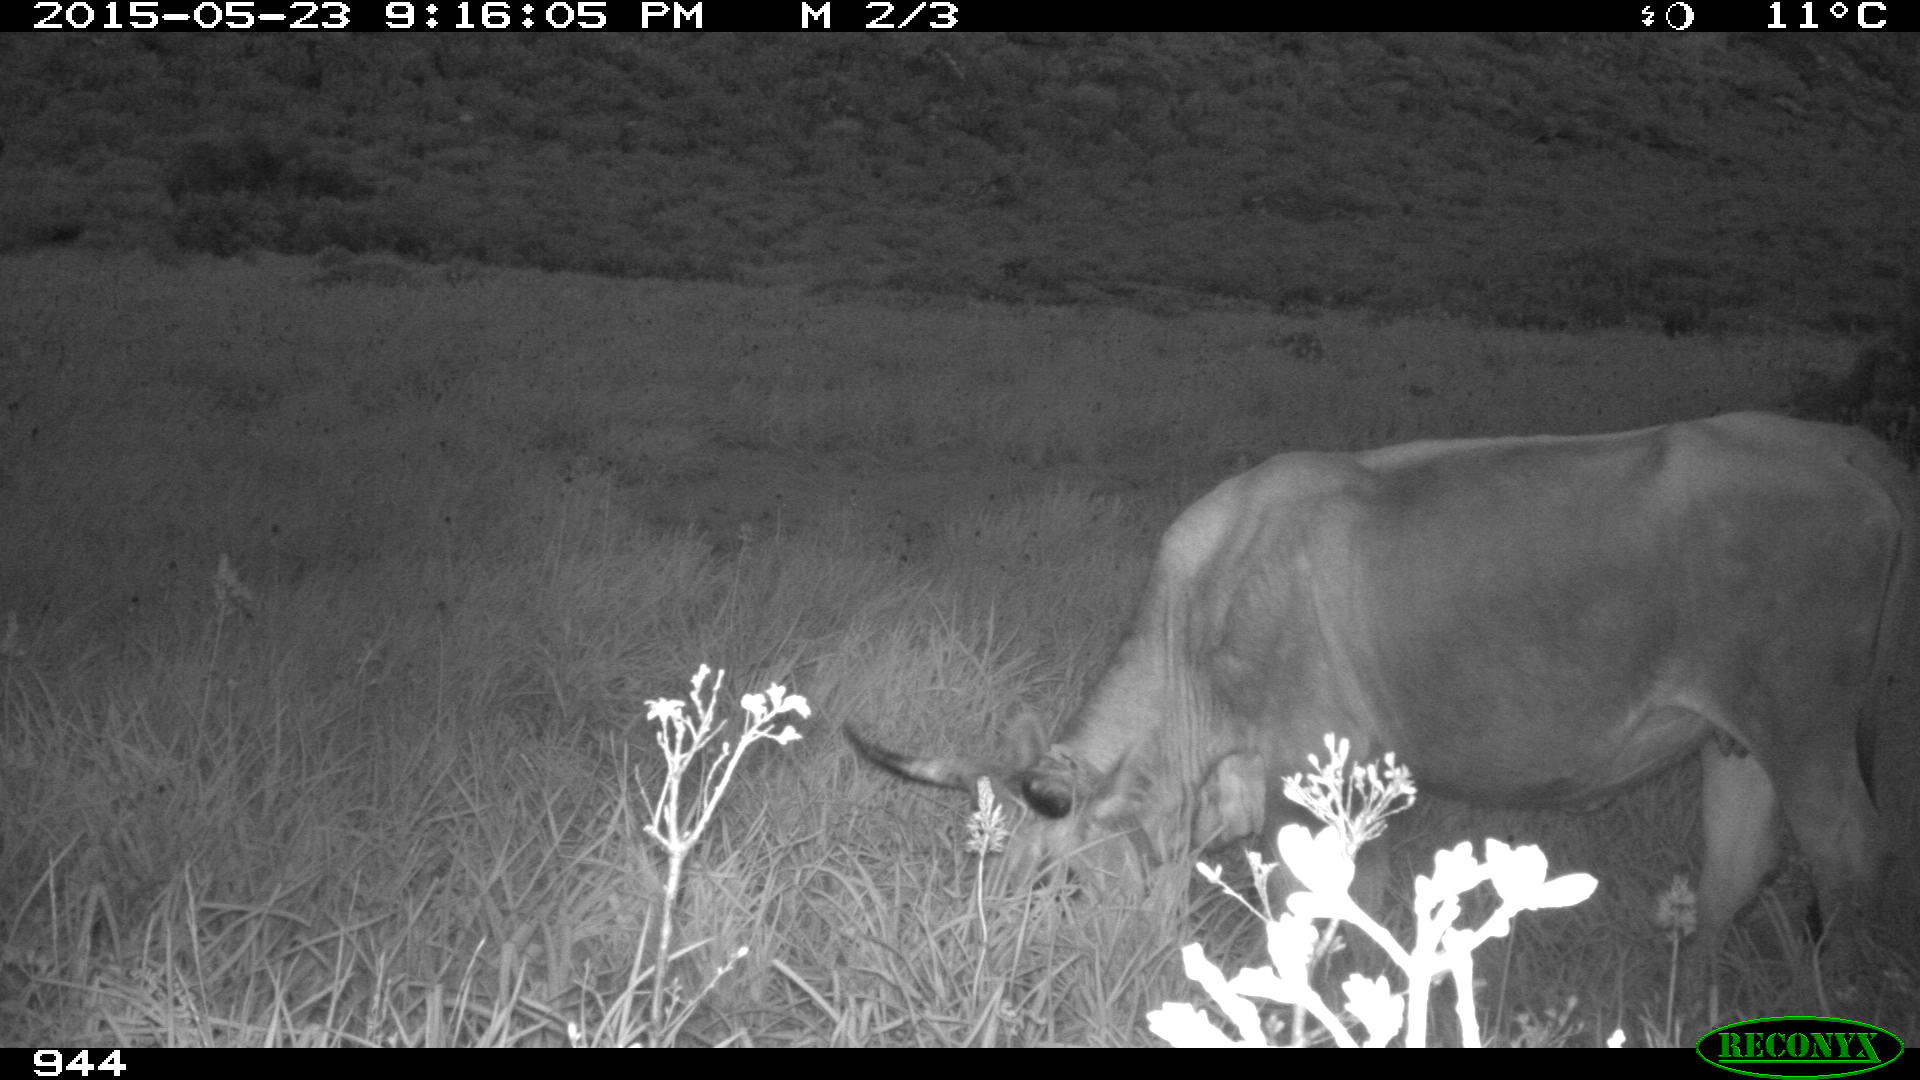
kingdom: Animalia
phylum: Chordata
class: Mammalia
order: Artiodactyla
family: Bovidae
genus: Bos
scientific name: Bos taurus
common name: Domesticated cattle
